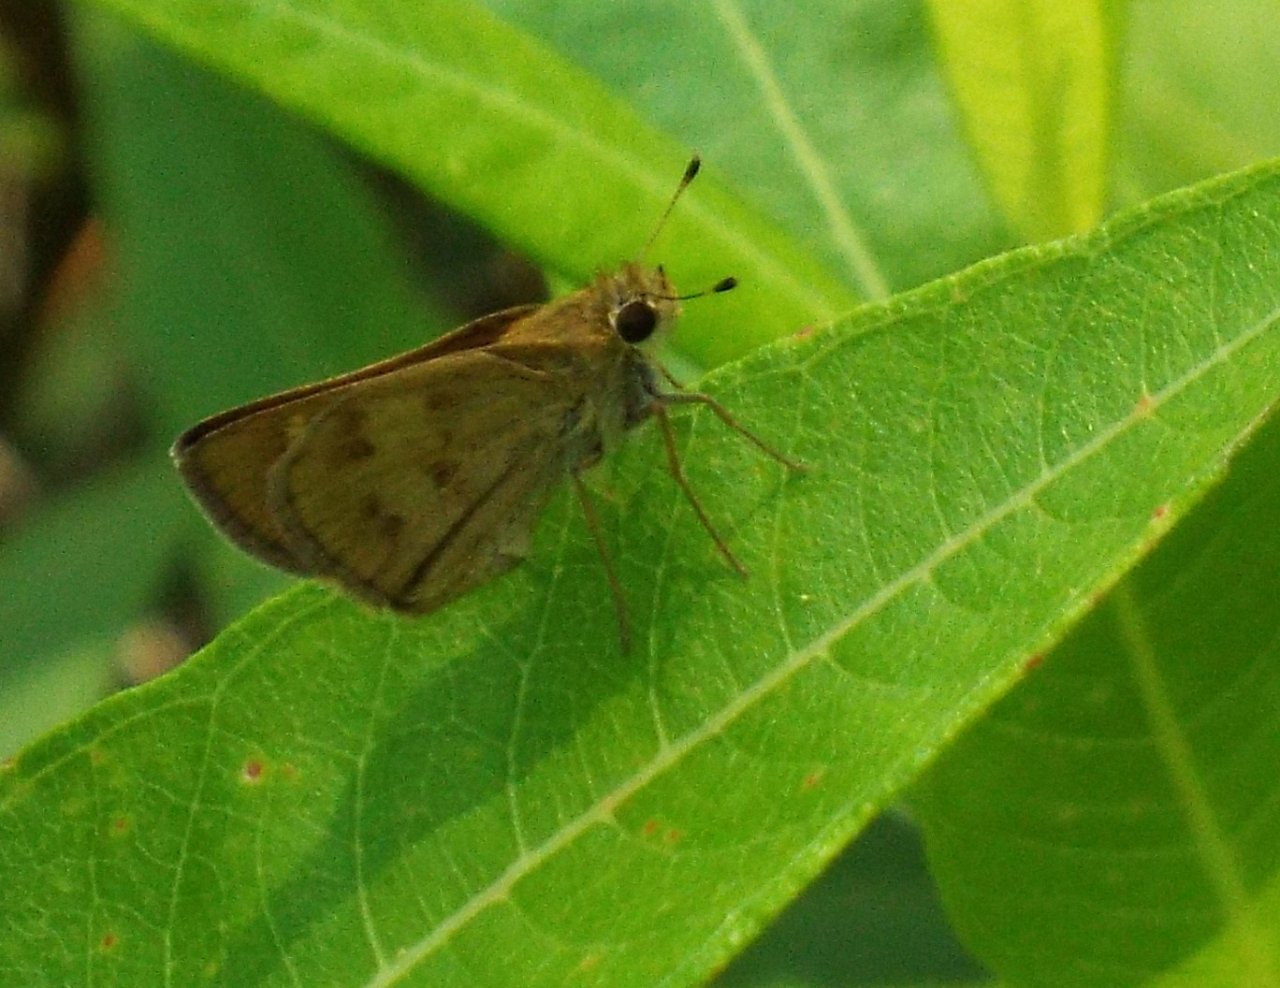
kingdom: Animalia
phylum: Arthropoda
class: Insecta
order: Lepidoptera
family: Hesperiidae
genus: Polites
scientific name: Polites vibex
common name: Whirlabout
